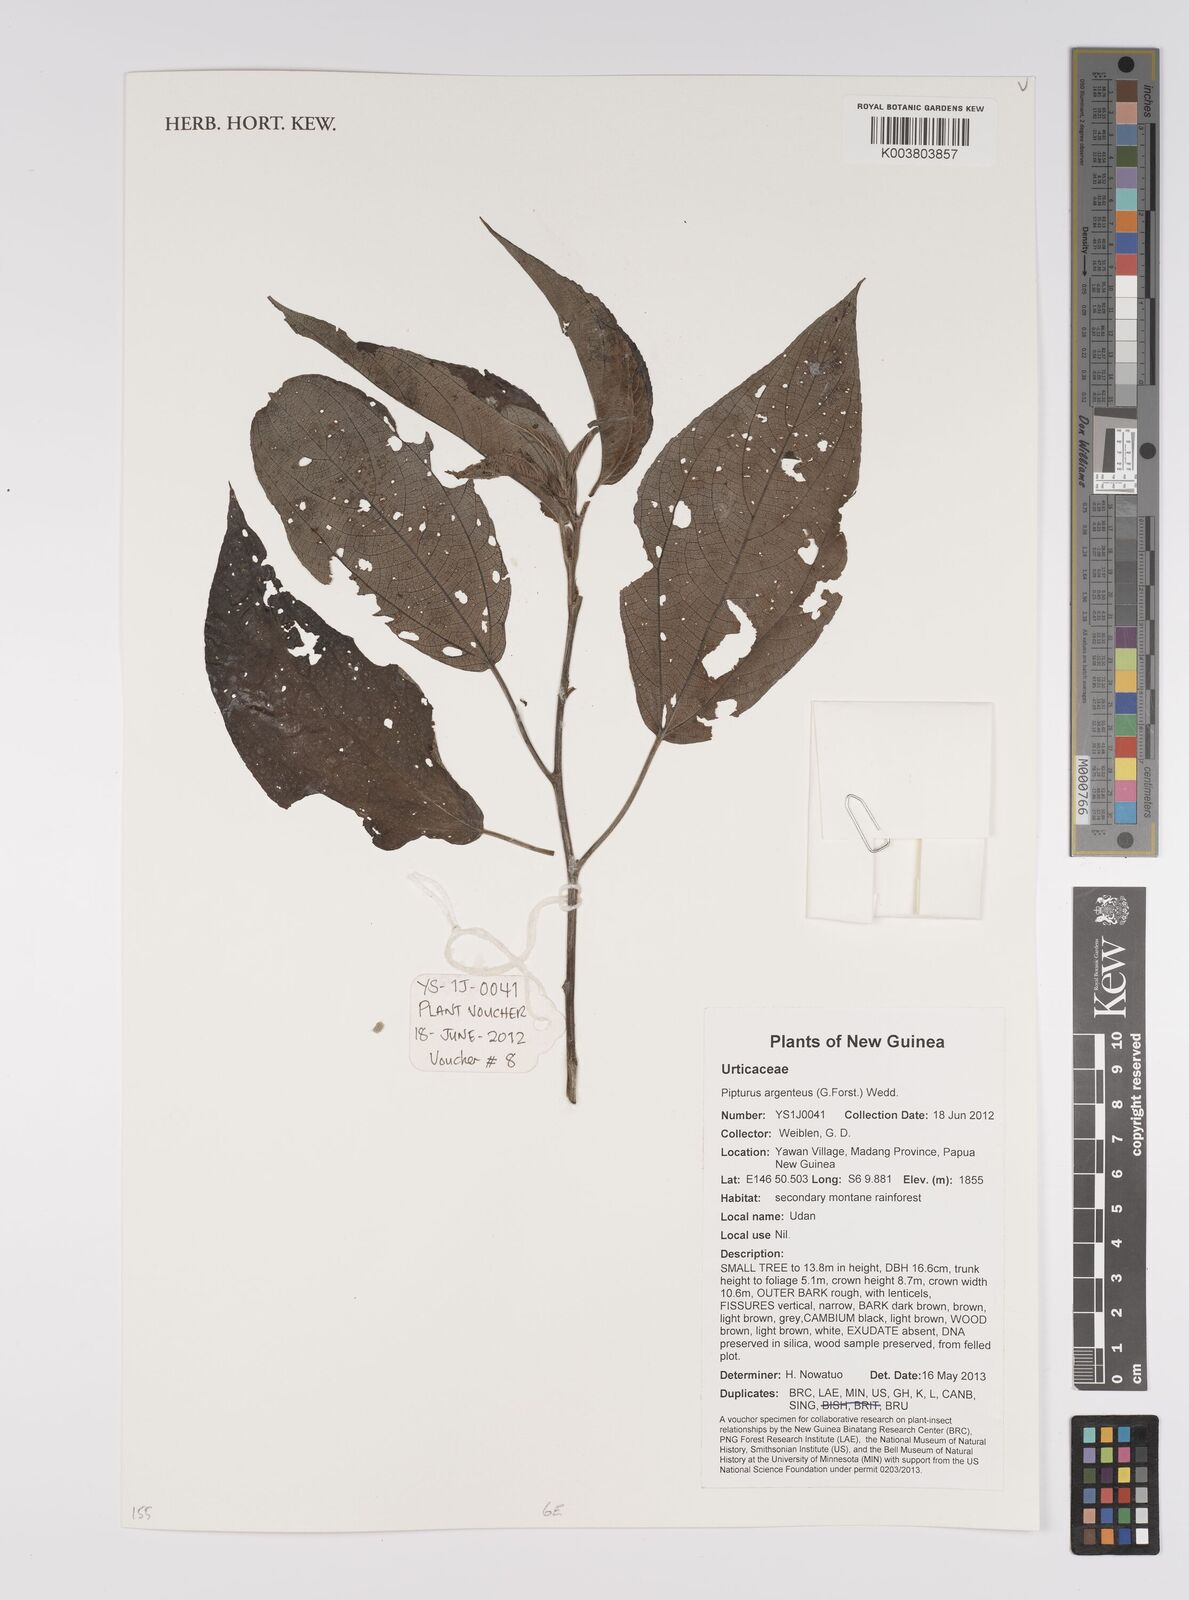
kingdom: Plantae
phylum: Tracheophyta
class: Magnoliopsida
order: Rosales
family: Urticaceae
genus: Pipturus
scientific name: Pipturus argenteus
